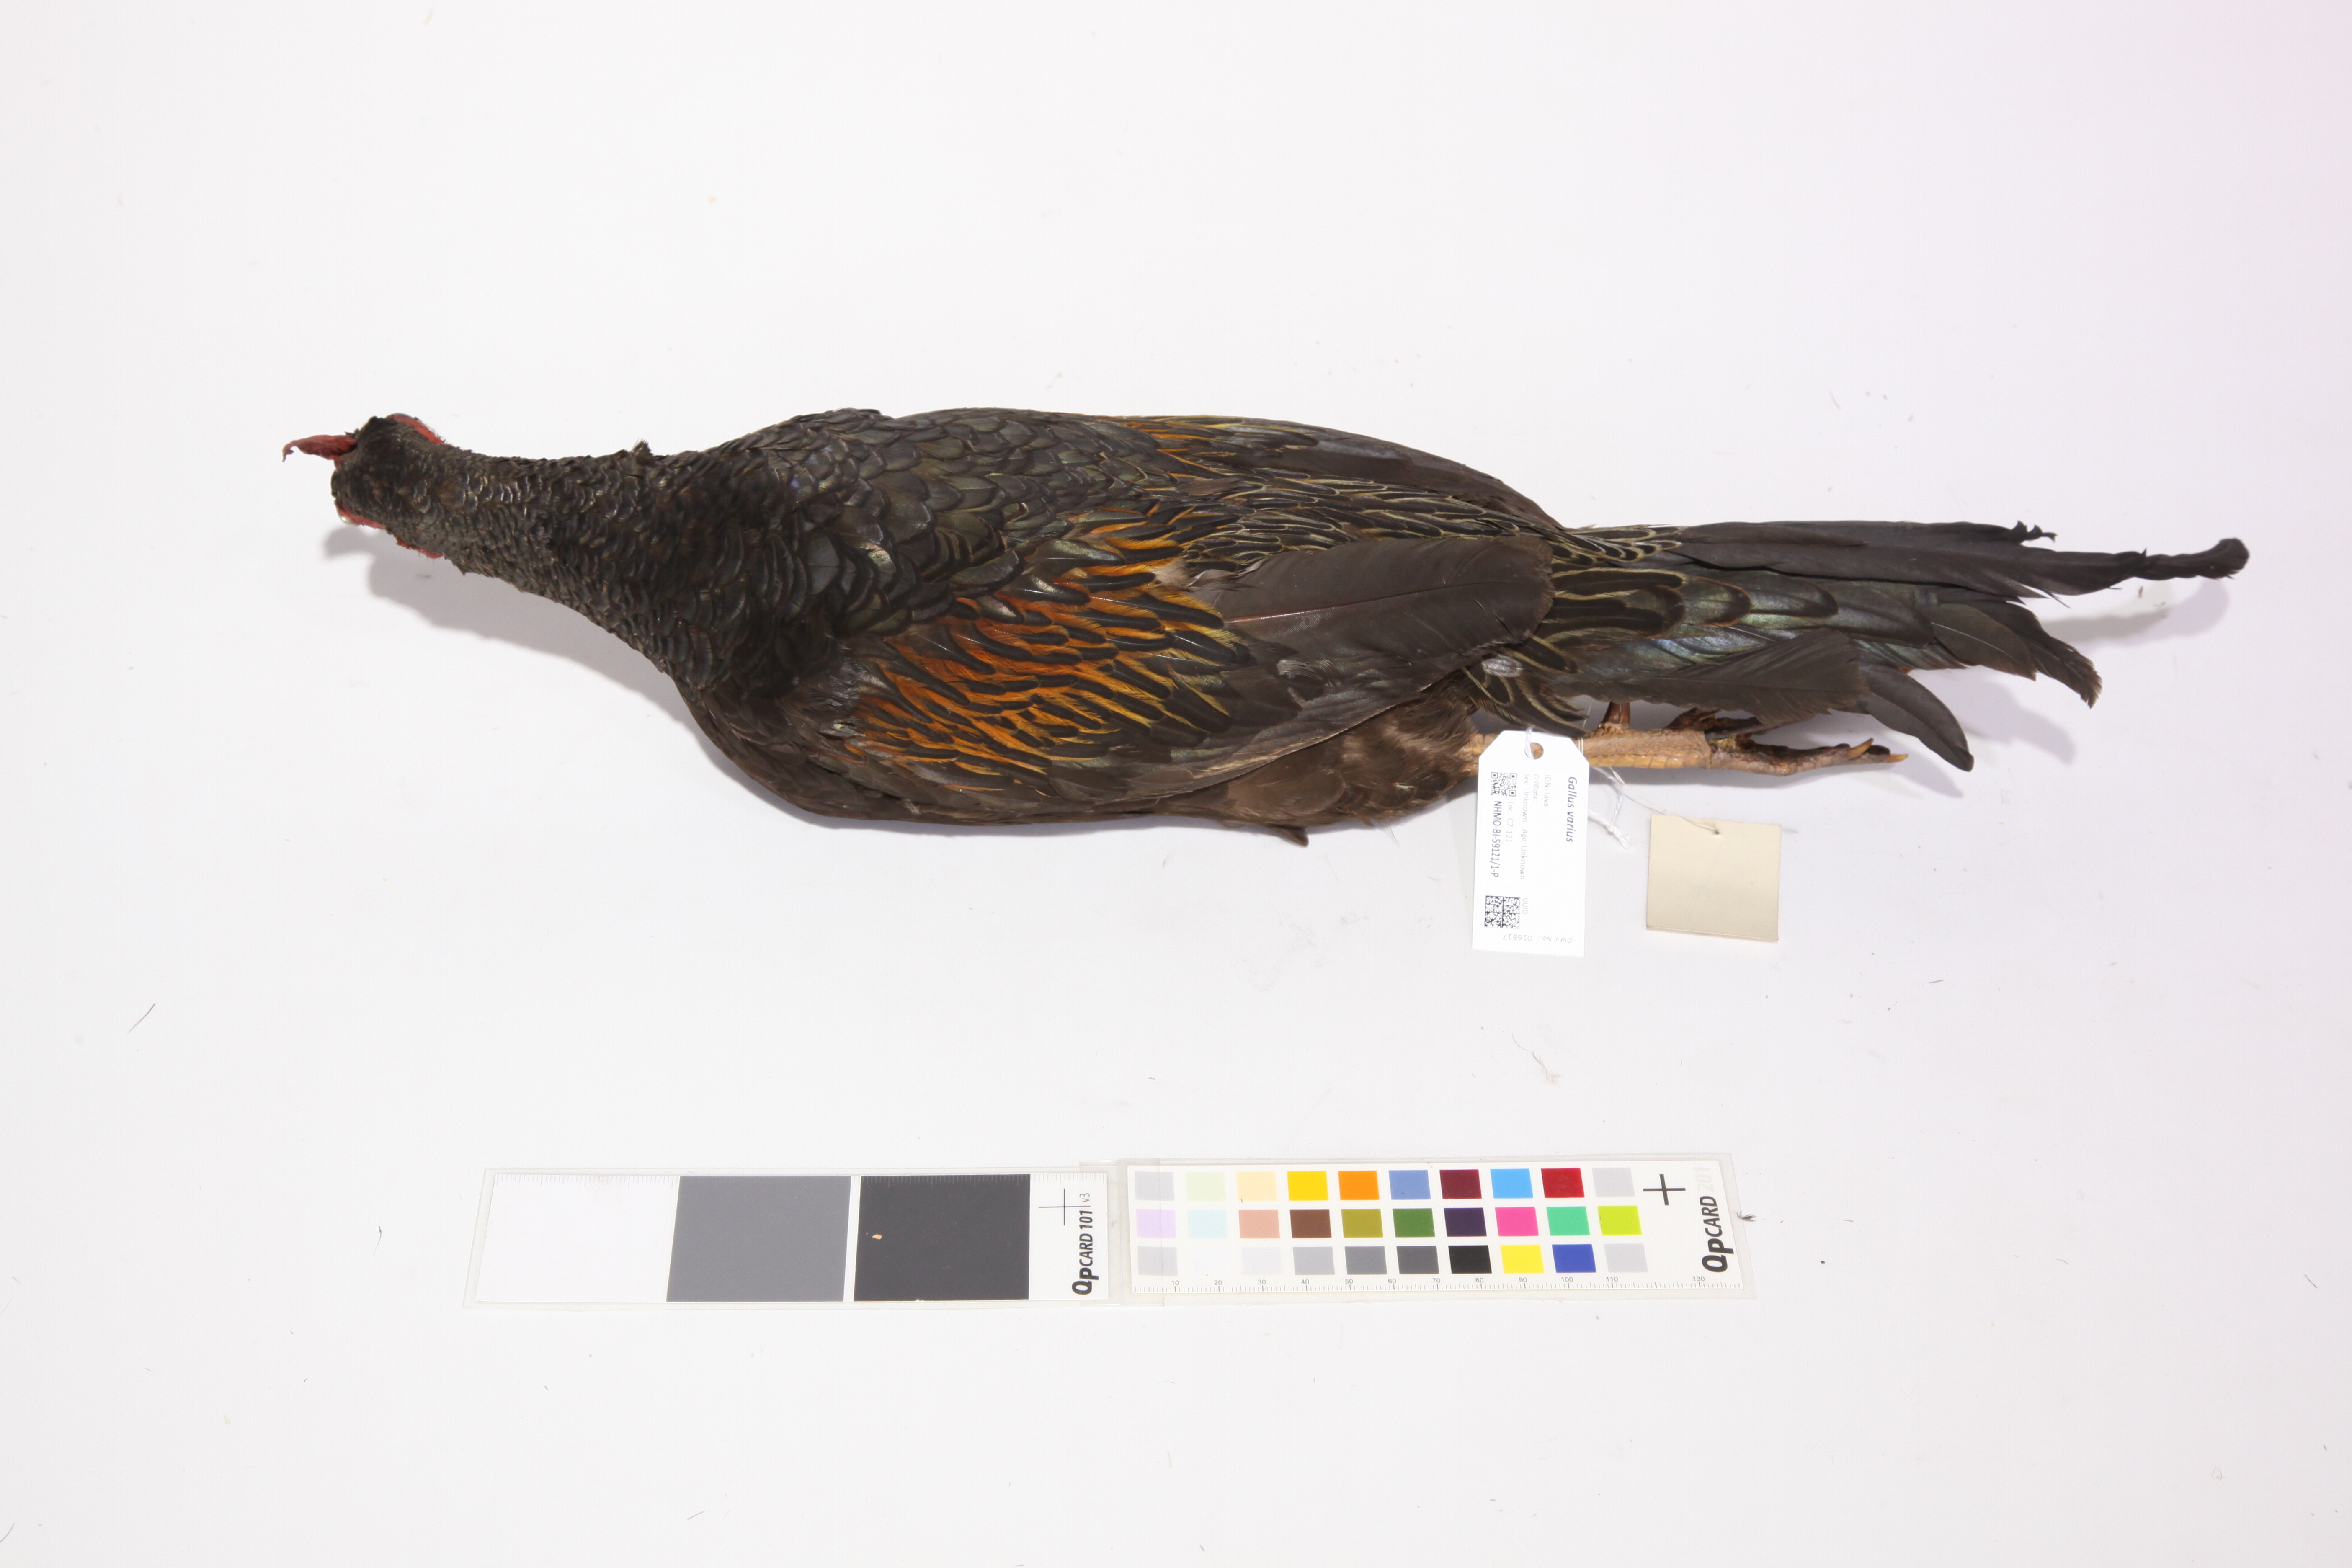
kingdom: Animalia
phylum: Chordata
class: Aves
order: Galliformes
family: Phasianidae
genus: Gallus
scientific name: Gallus varius
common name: Green junglefowl
